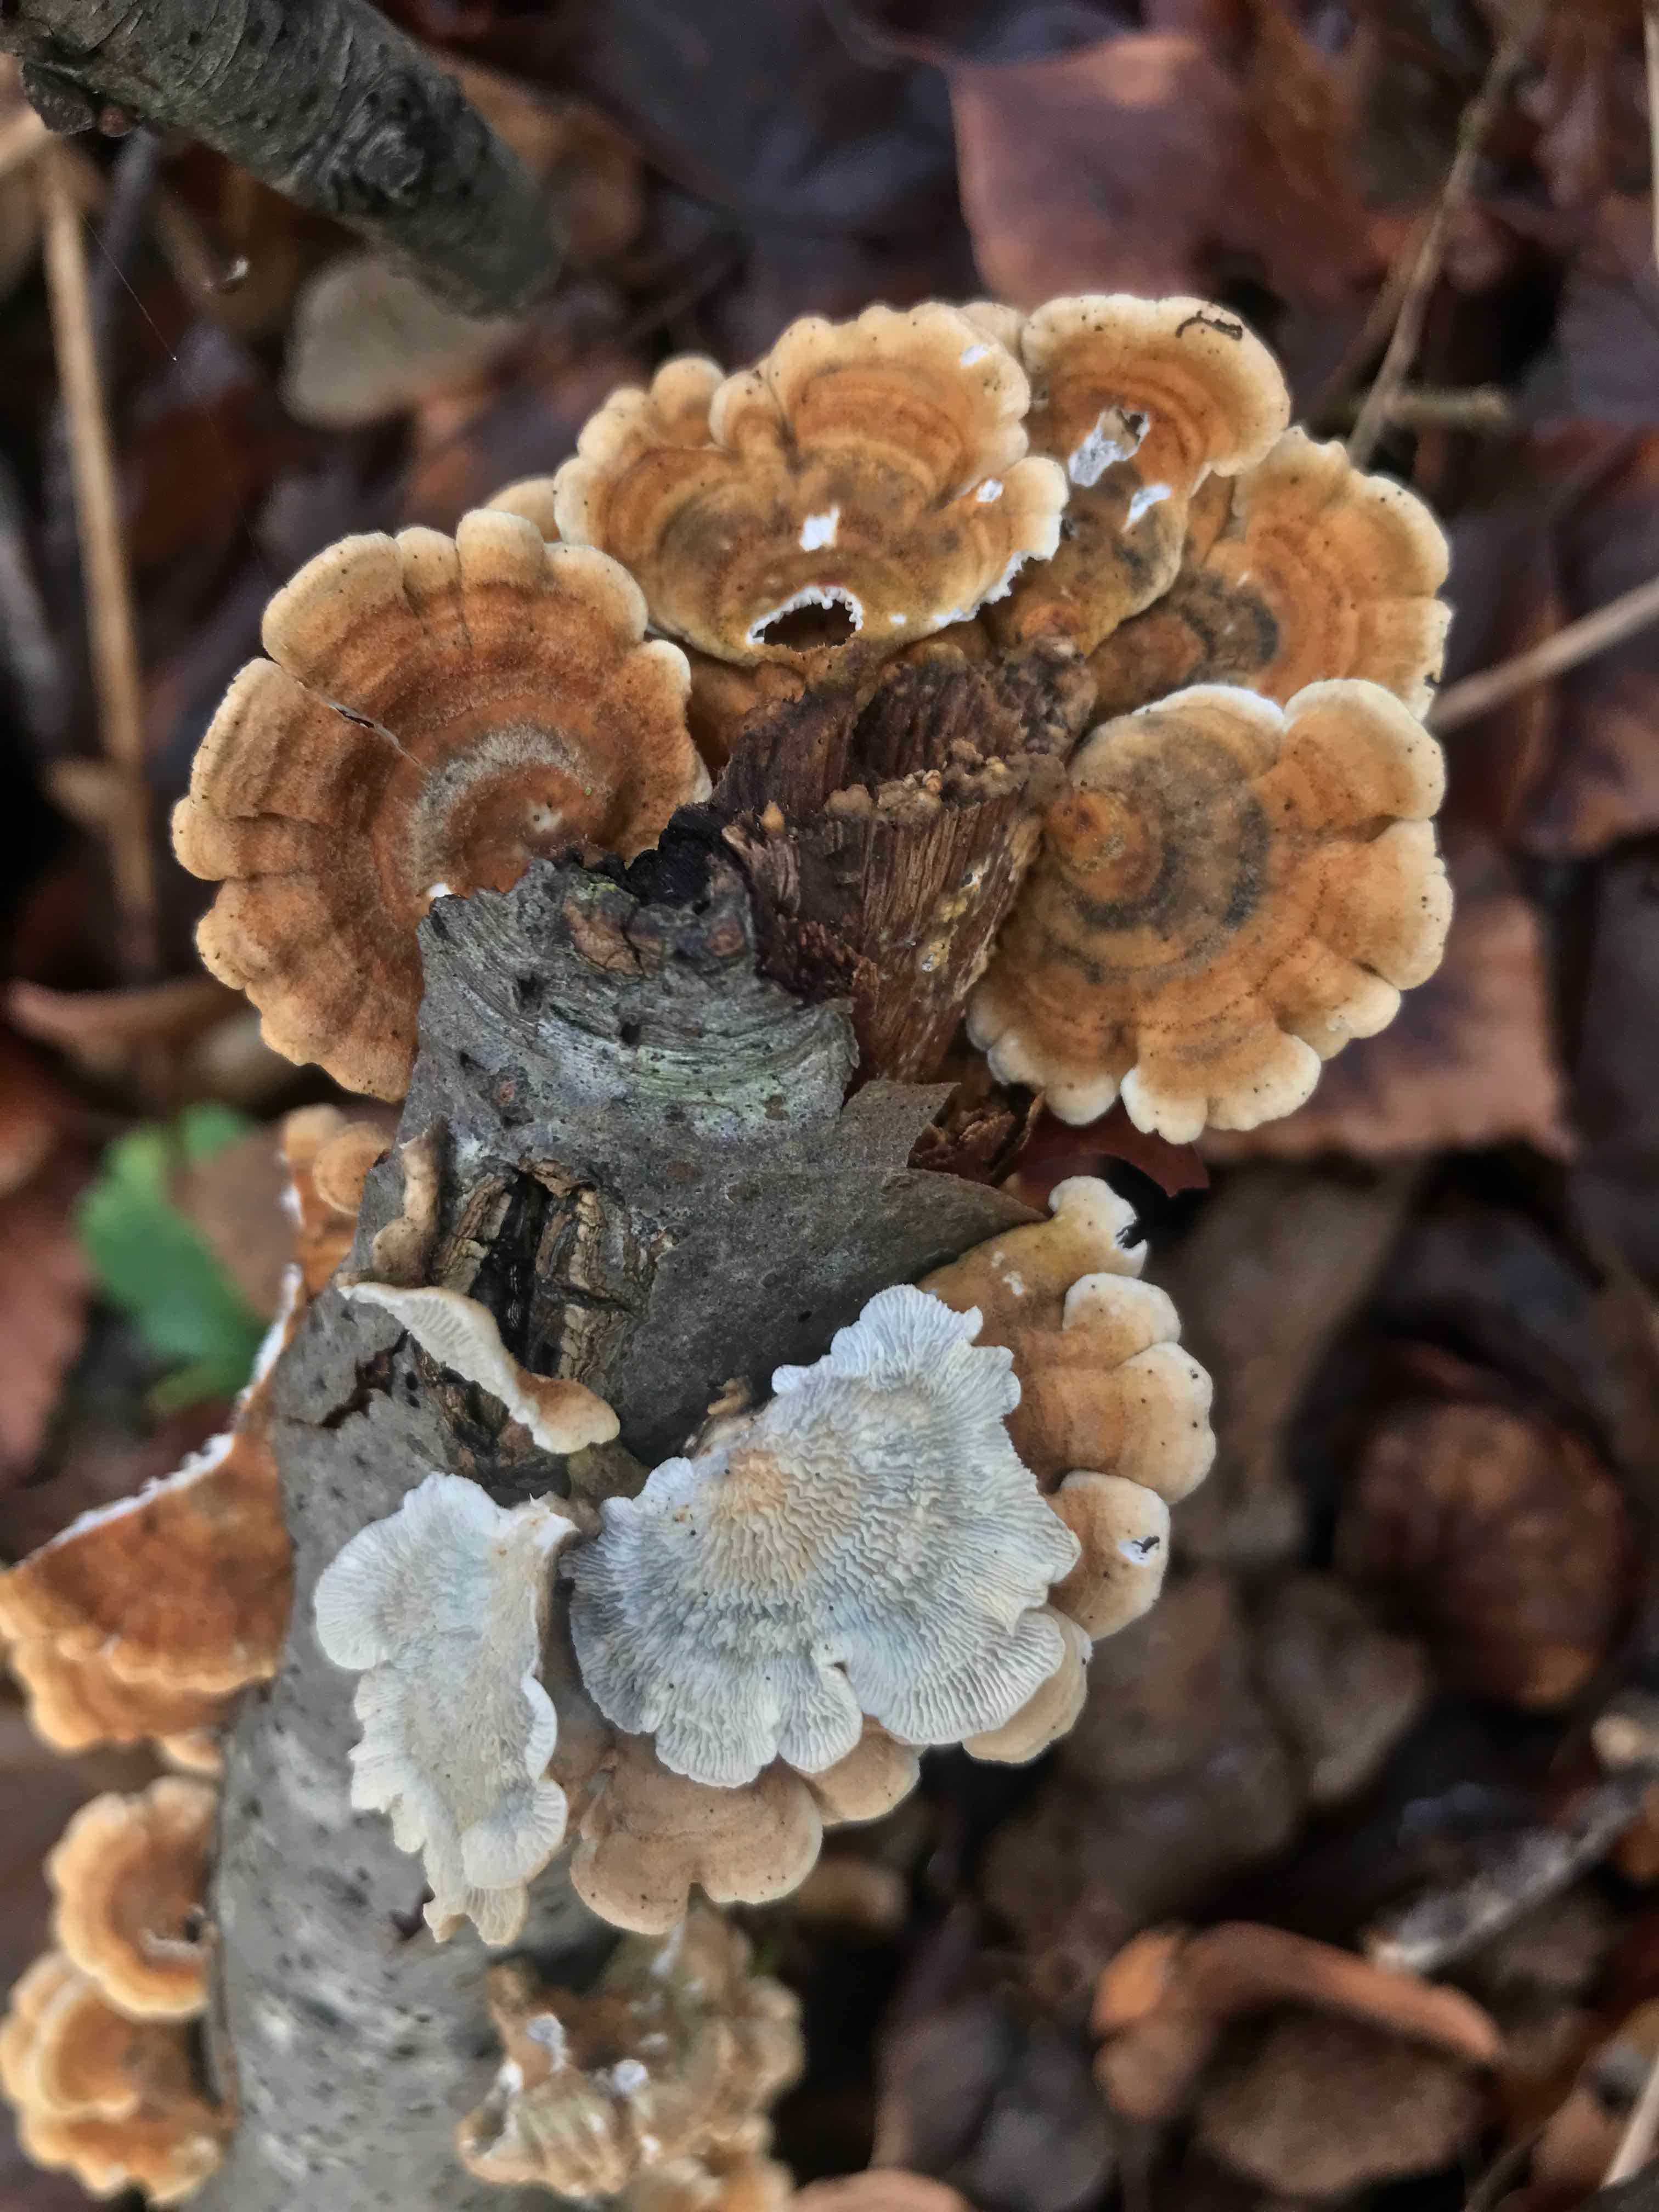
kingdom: Fungi
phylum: Basidiomycota
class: Agaricomycetes
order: Amylocorticiales
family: Amylocorticiaceae
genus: Plicaturopsis
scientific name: Plicaturopsis crispa
